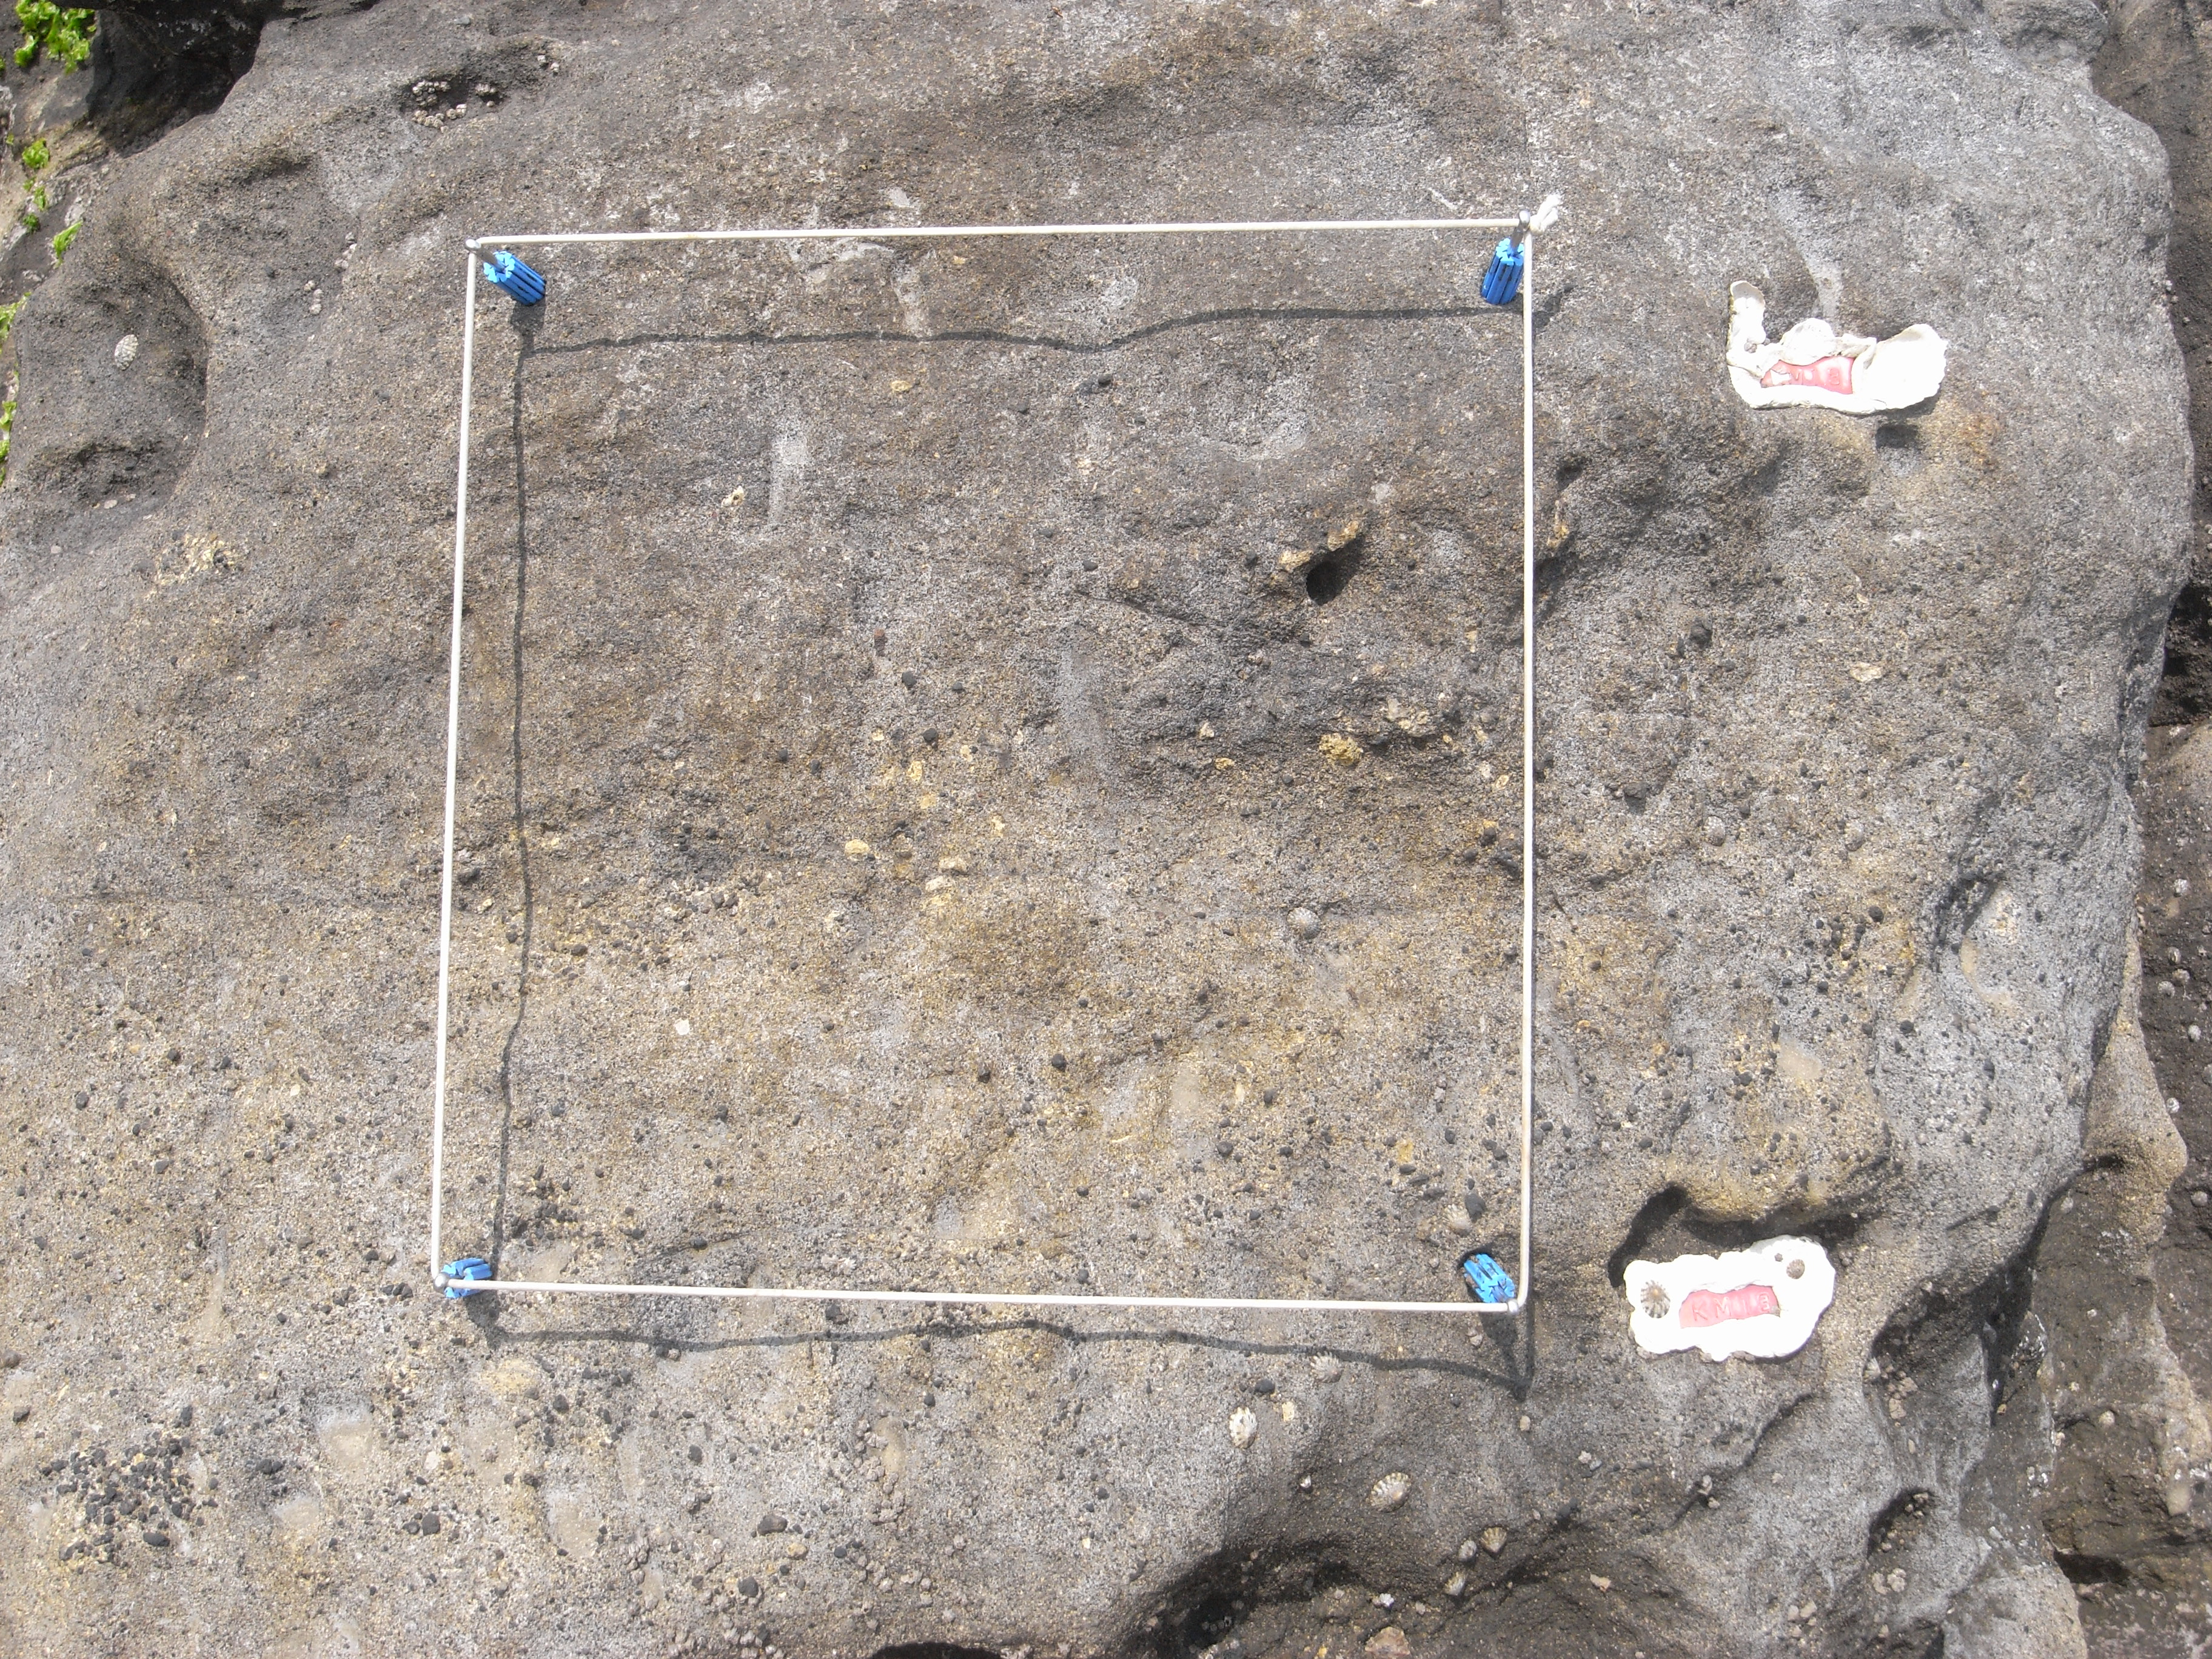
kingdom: Animalia
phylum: Arthropoda
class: Maxillopoda
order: Sessilia
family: Chthamalidae
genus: Chthamalus
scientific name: Chthamalus challengeri
